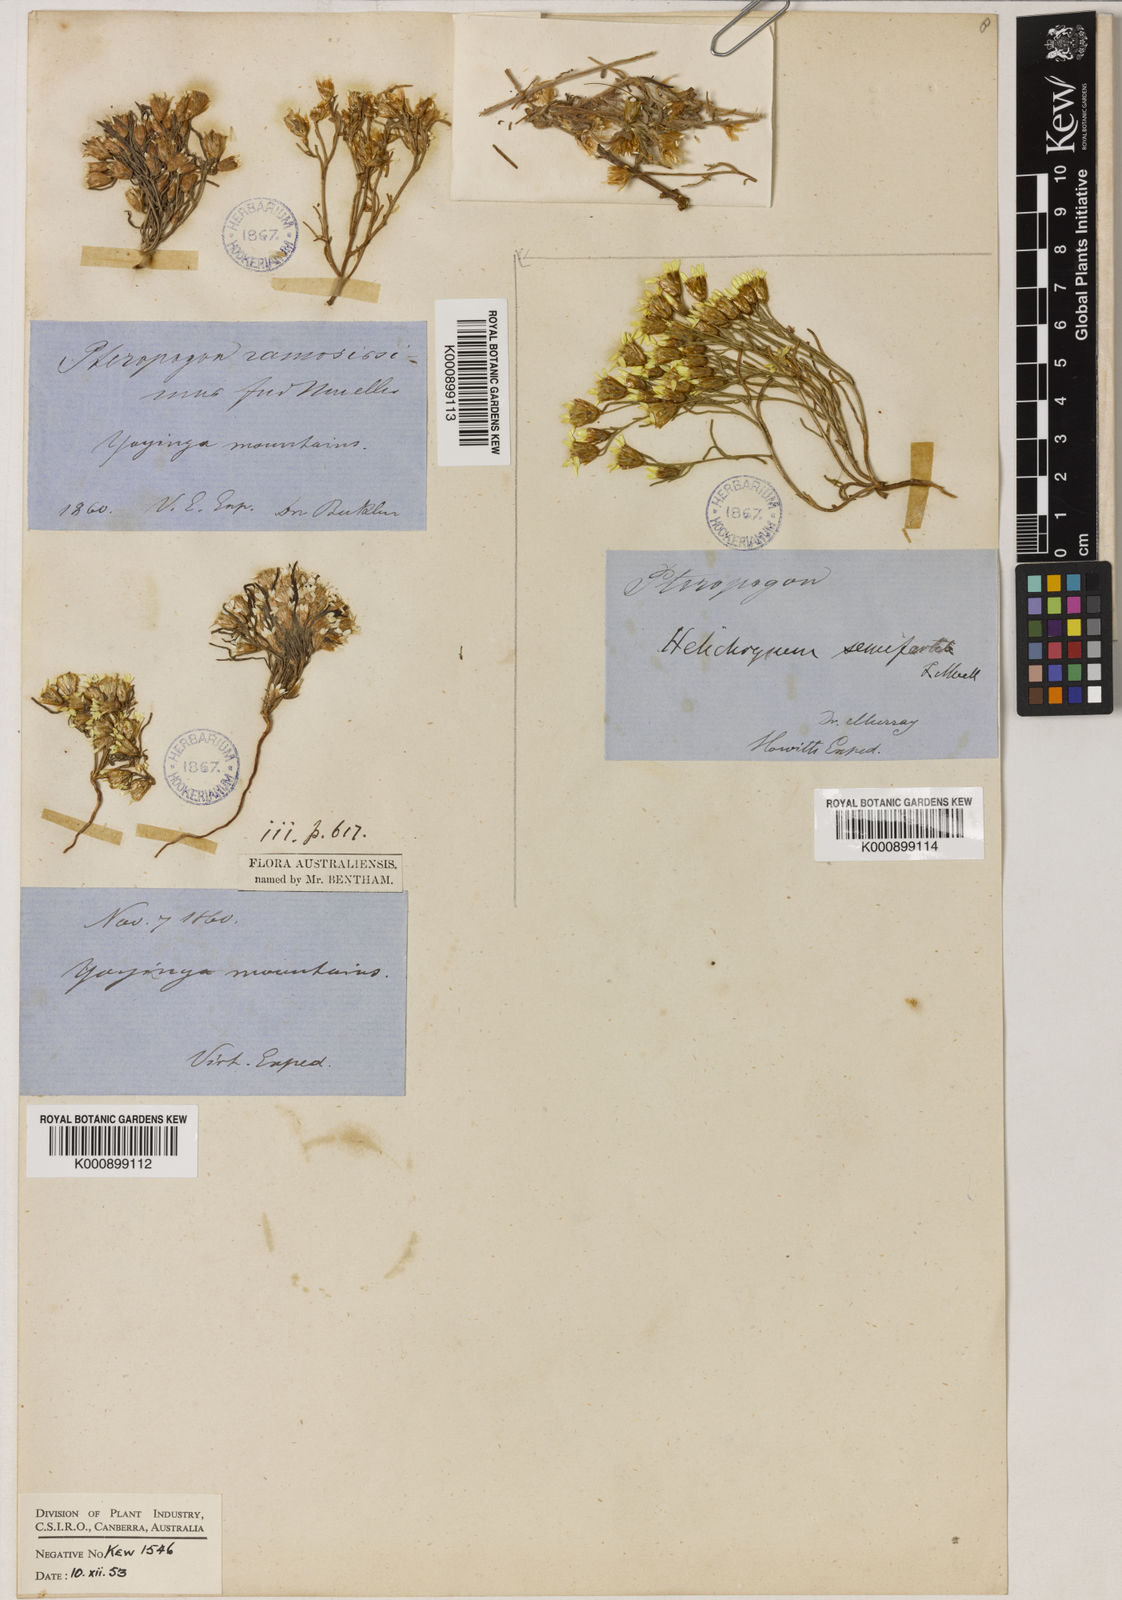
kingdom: Plantae
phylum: Tracheophyta
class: Magnoliopsida
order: Asterales
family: Asteraceae
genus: Schoenia
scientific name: Schoenia ramosissima
